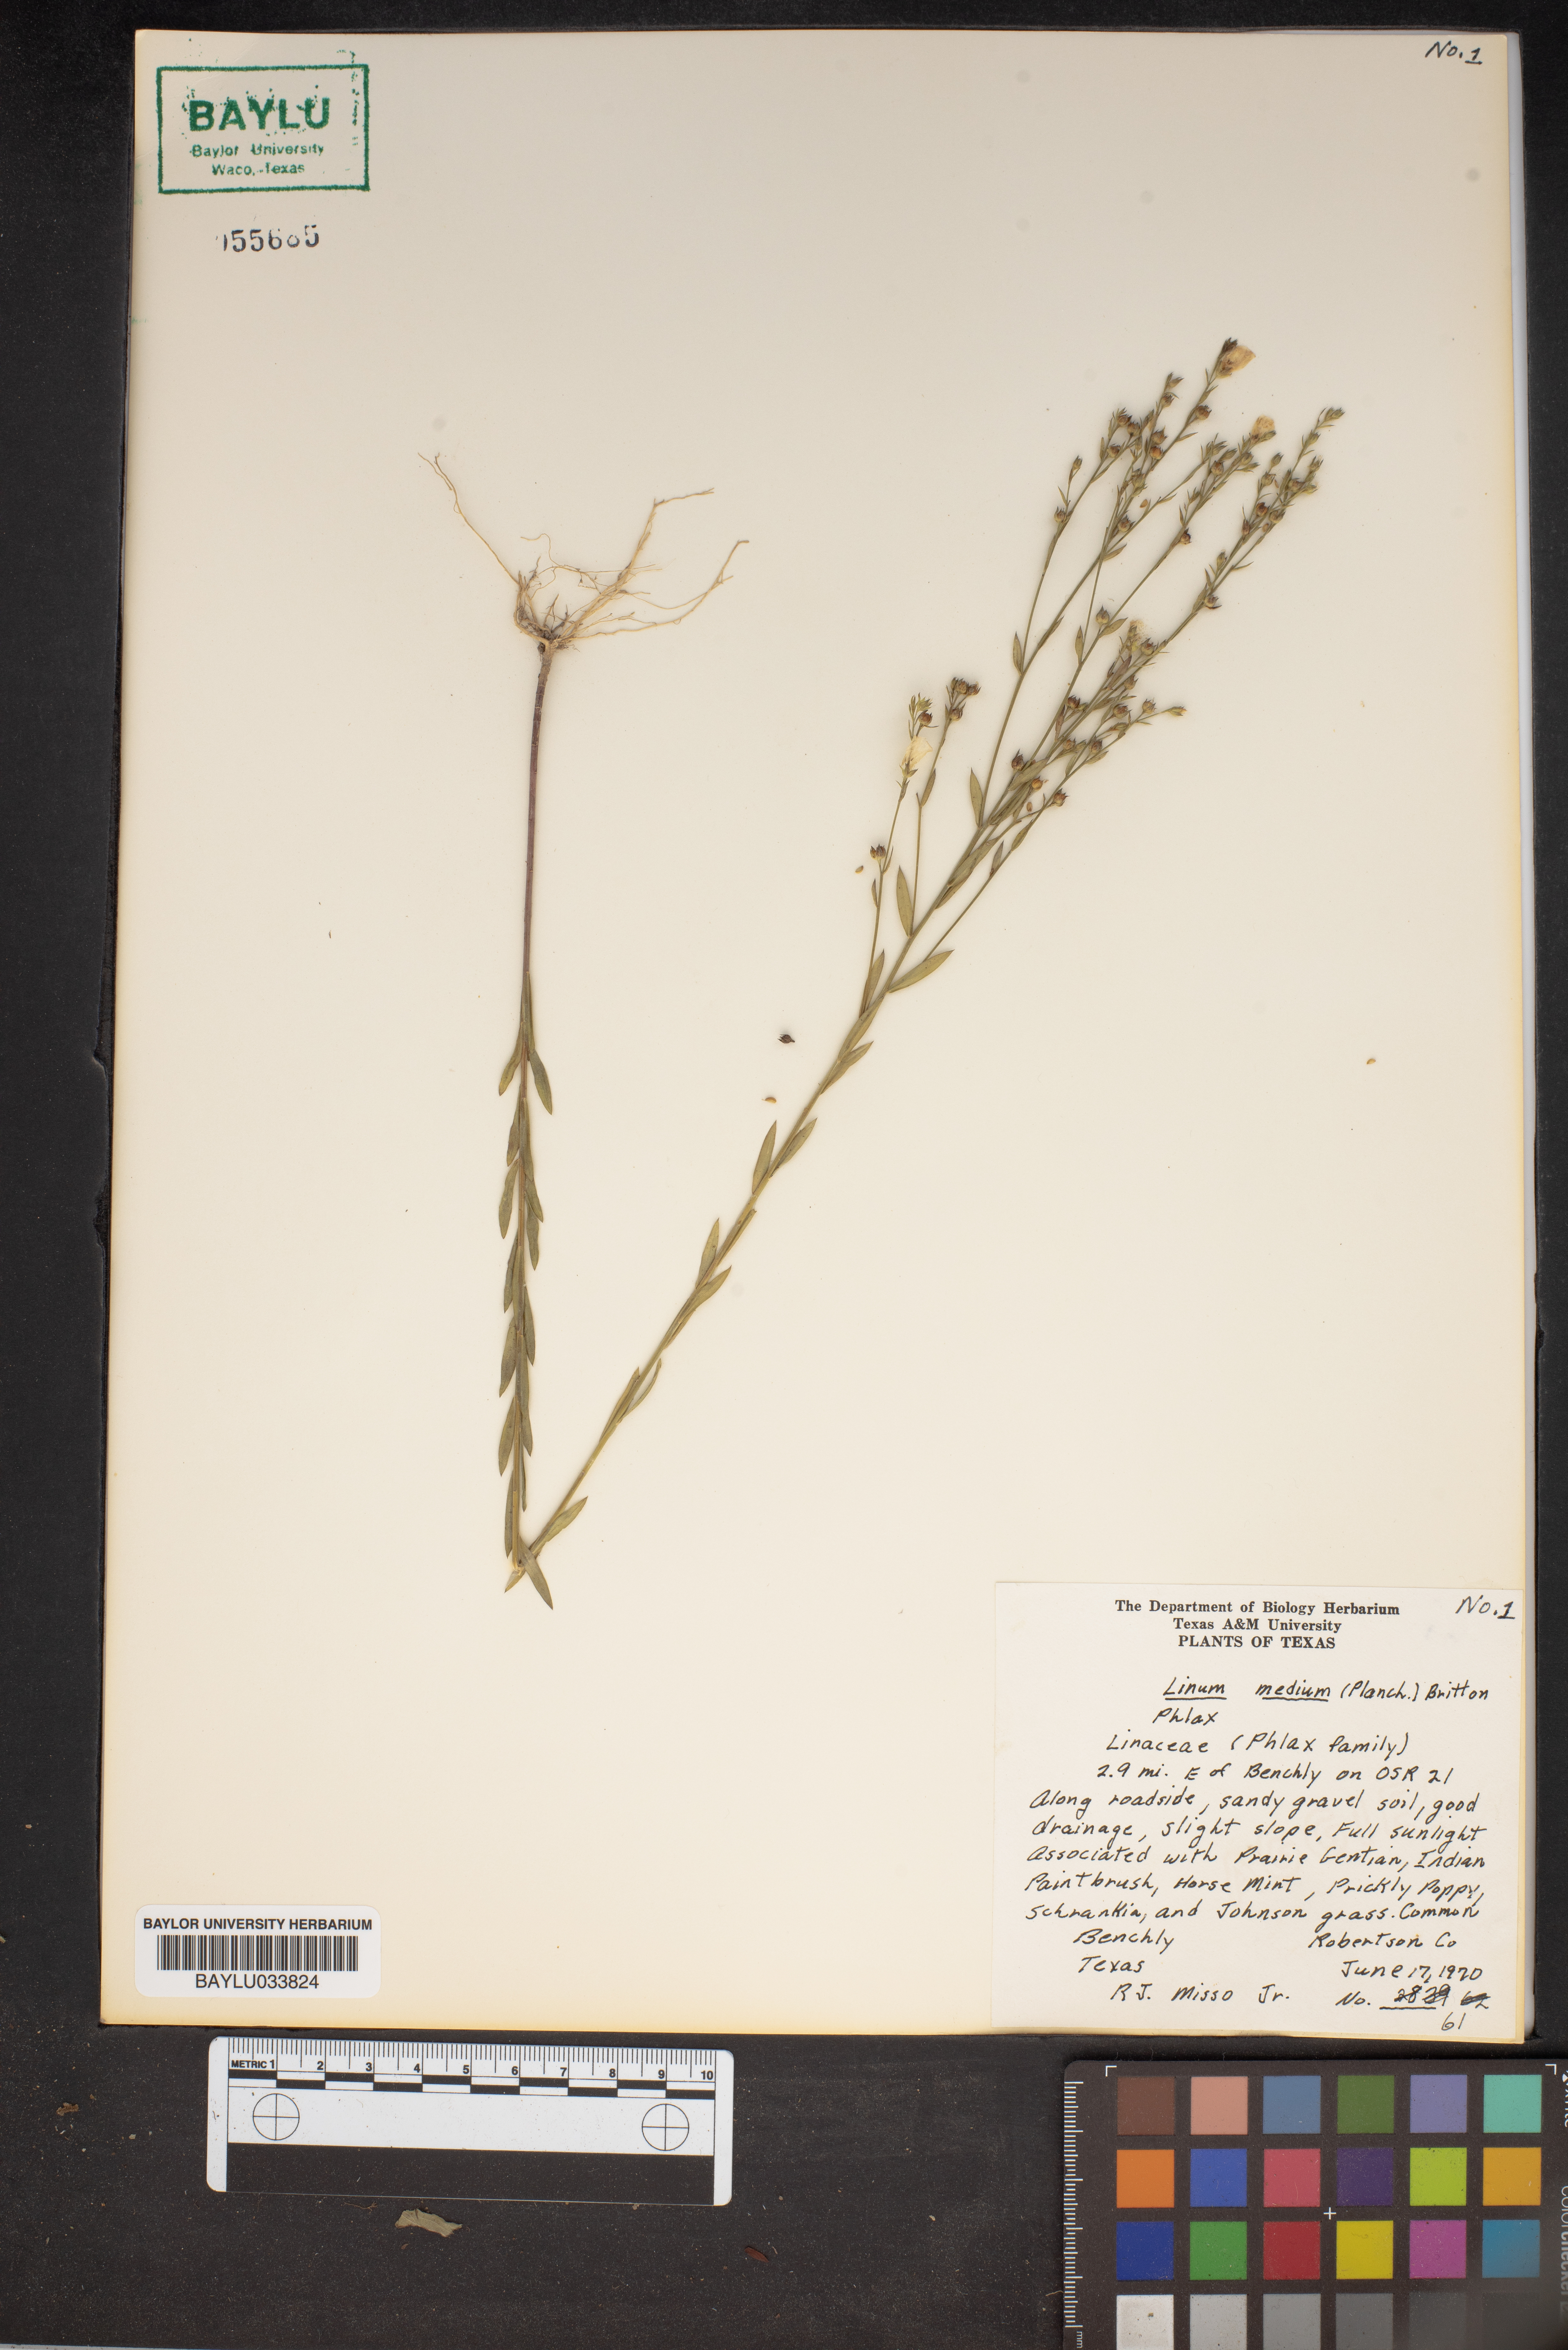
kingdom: Plantae
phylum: Tracheophyta
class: Magnoliopsida
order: Malpighiales
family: Linaceae
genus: Linum
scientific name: Linum medium
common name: Stiff yellow flax
